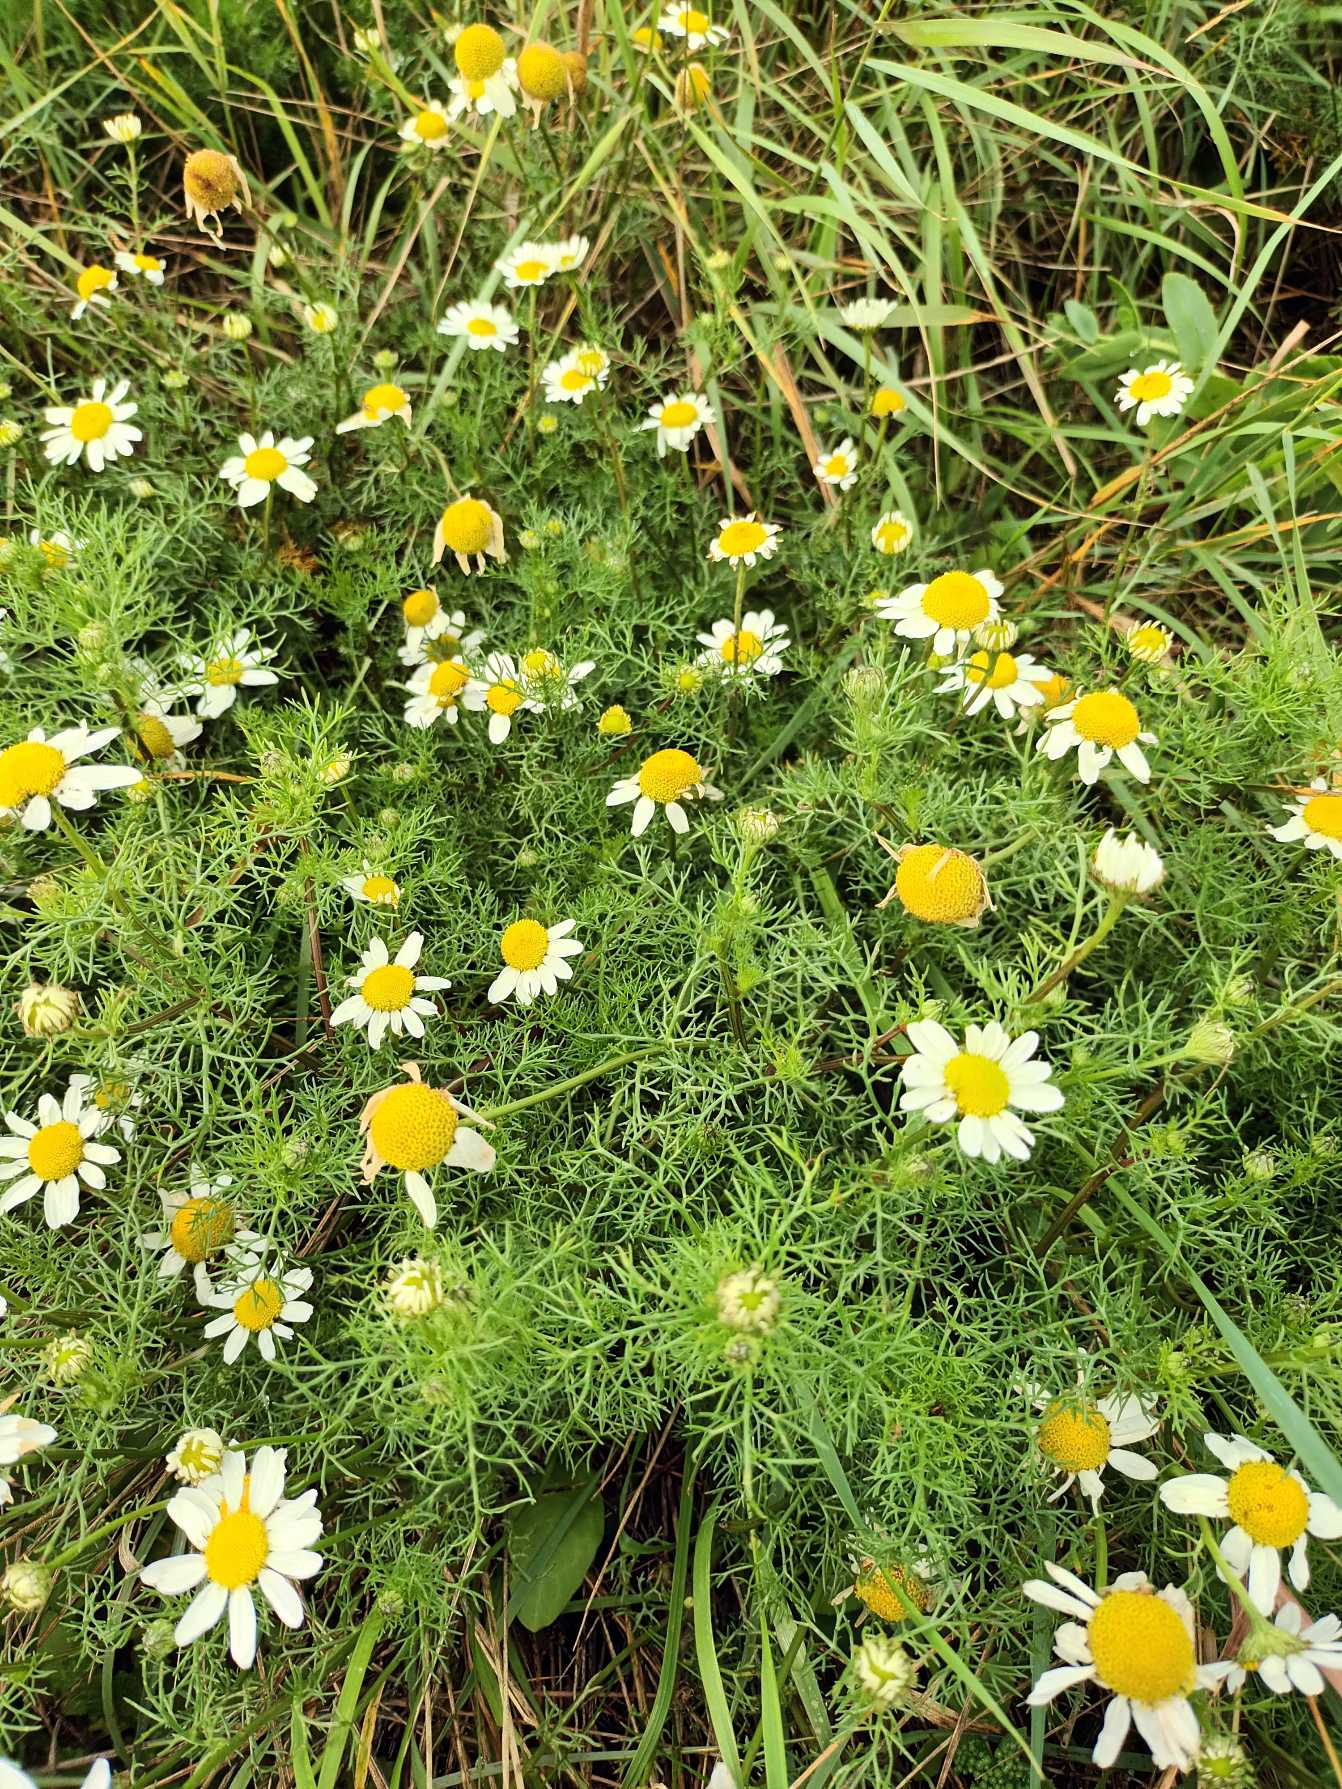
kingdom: Plantae
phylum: Tracheophyta
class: Magnoliopsida
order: Asterales
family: Asteraceae
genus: Tripleurospermum
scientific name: Tripleurospermum maritimum
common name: Strand-kamille
